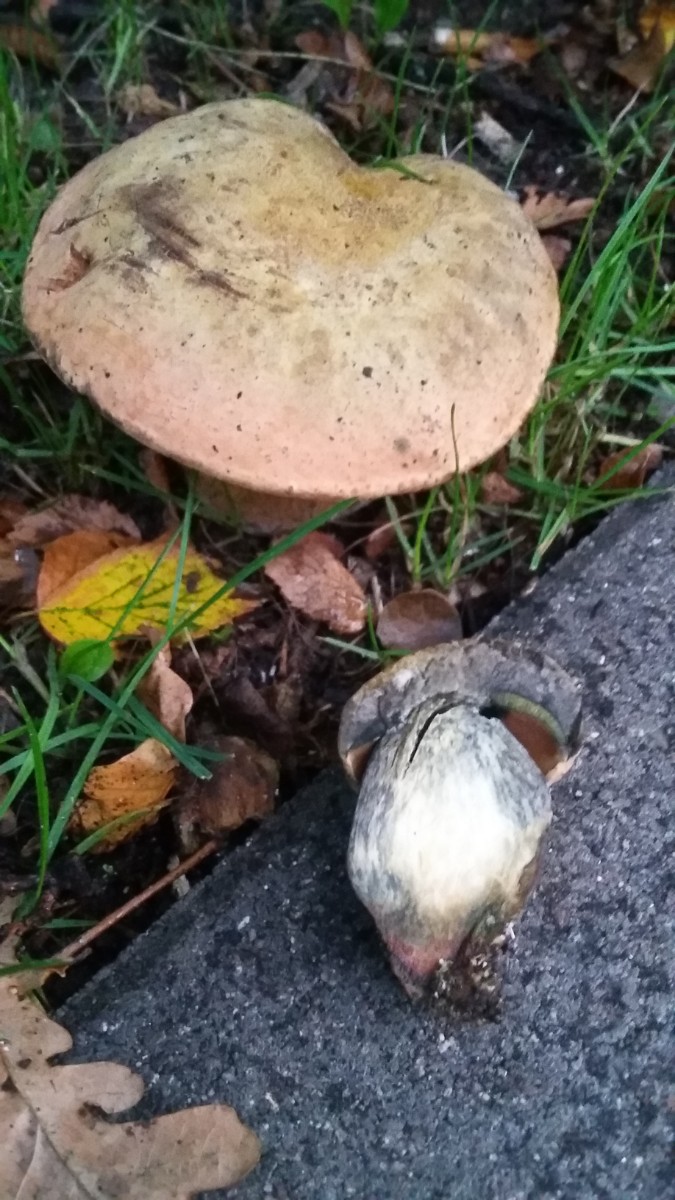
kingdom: Fungi
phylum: Basidiomycota
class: Agaricomycetes
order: Boletales
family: Boletaceae
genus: Suillellus
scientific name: Suillellus luridus
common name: netstokket indigorørhat
